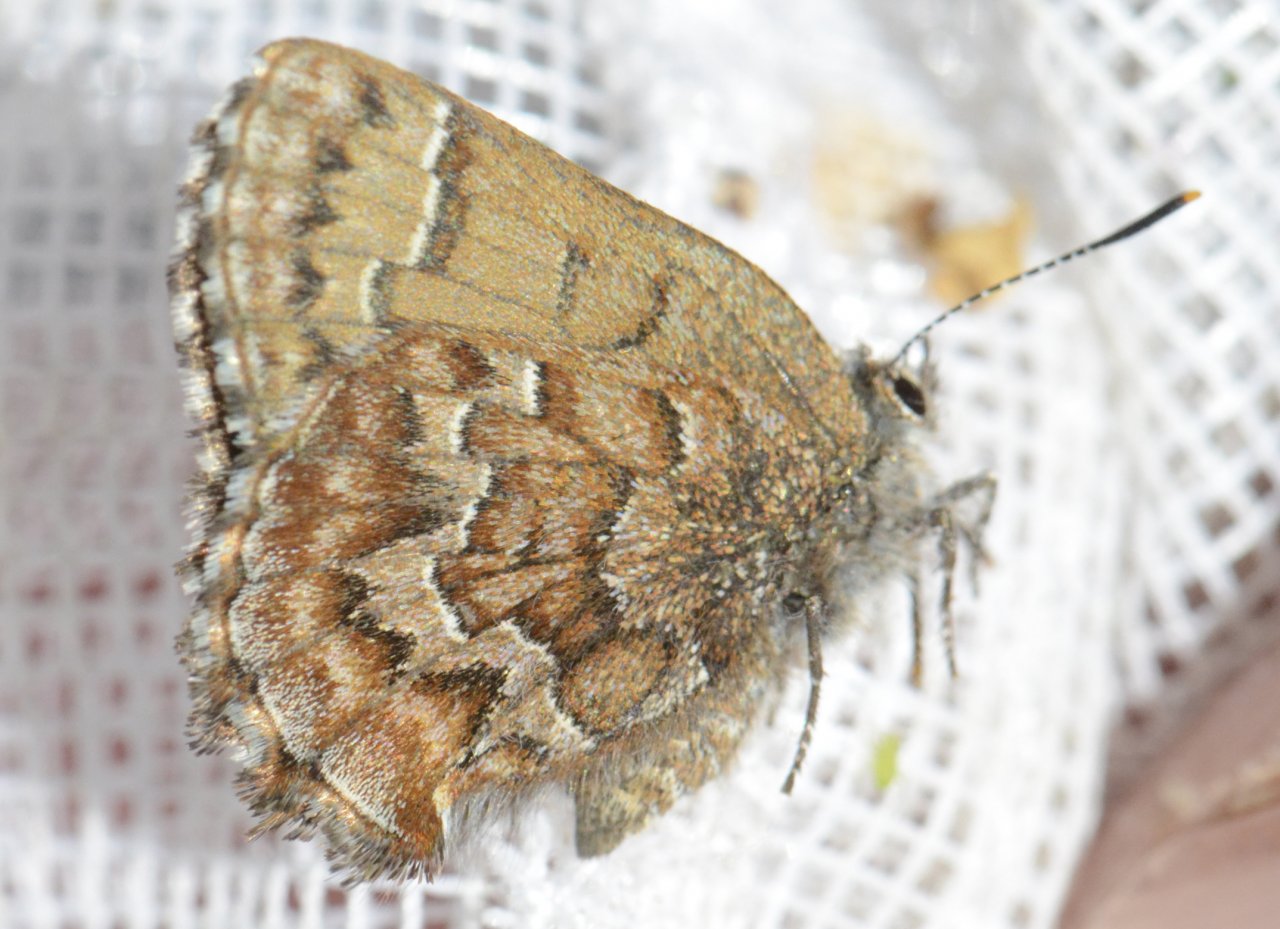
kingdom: Animalia
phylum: Arthropoda
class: Insecta
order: Lepidoptera
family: Lycaenidae
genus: Incisalia
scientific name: Incisalia niphon
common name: Eastern Pine Elfin
